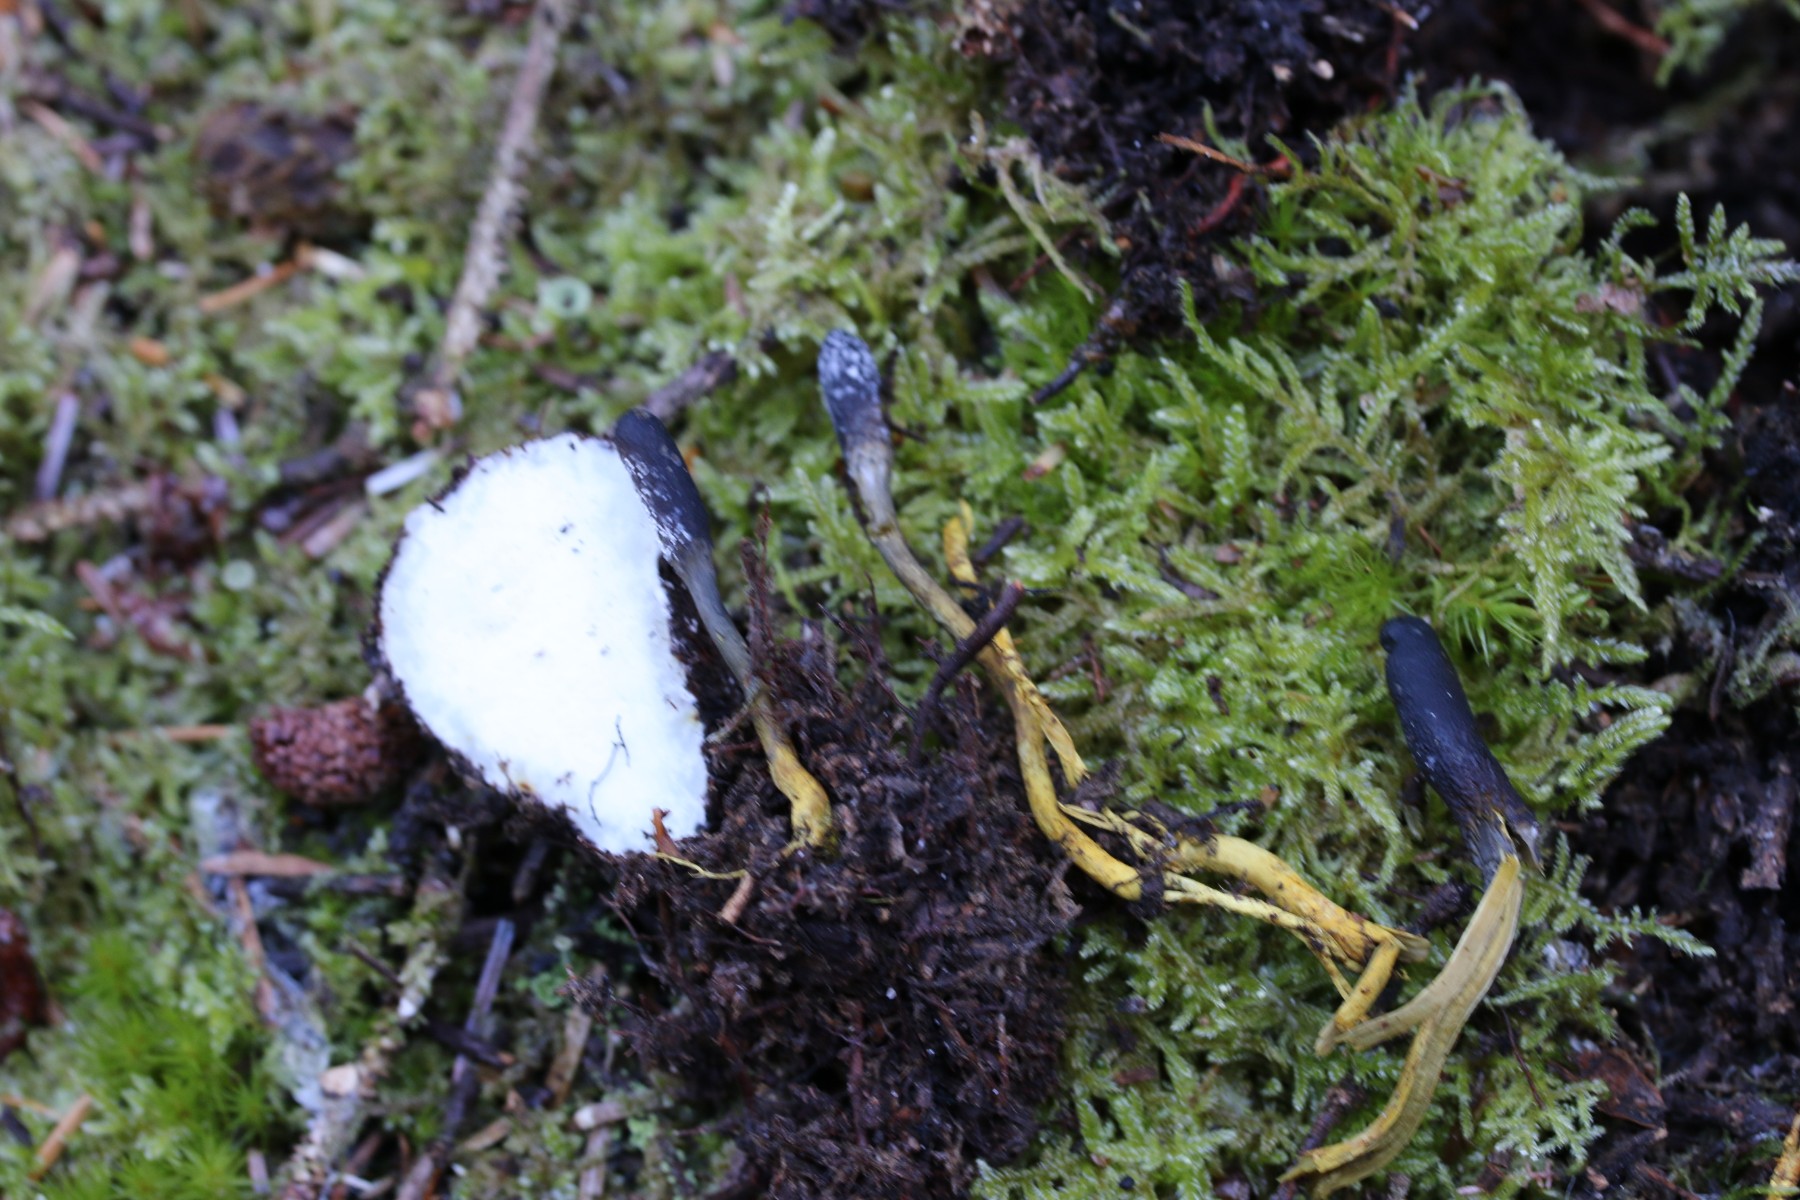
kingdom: Fungi
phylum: Ascomycota
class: Sordariomycetes
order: Hypocreales
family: Ophiocordycipitaceae
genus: Tolypocladium
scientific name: Tolypocladium ophioglossoides
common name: slank snyltekølle
